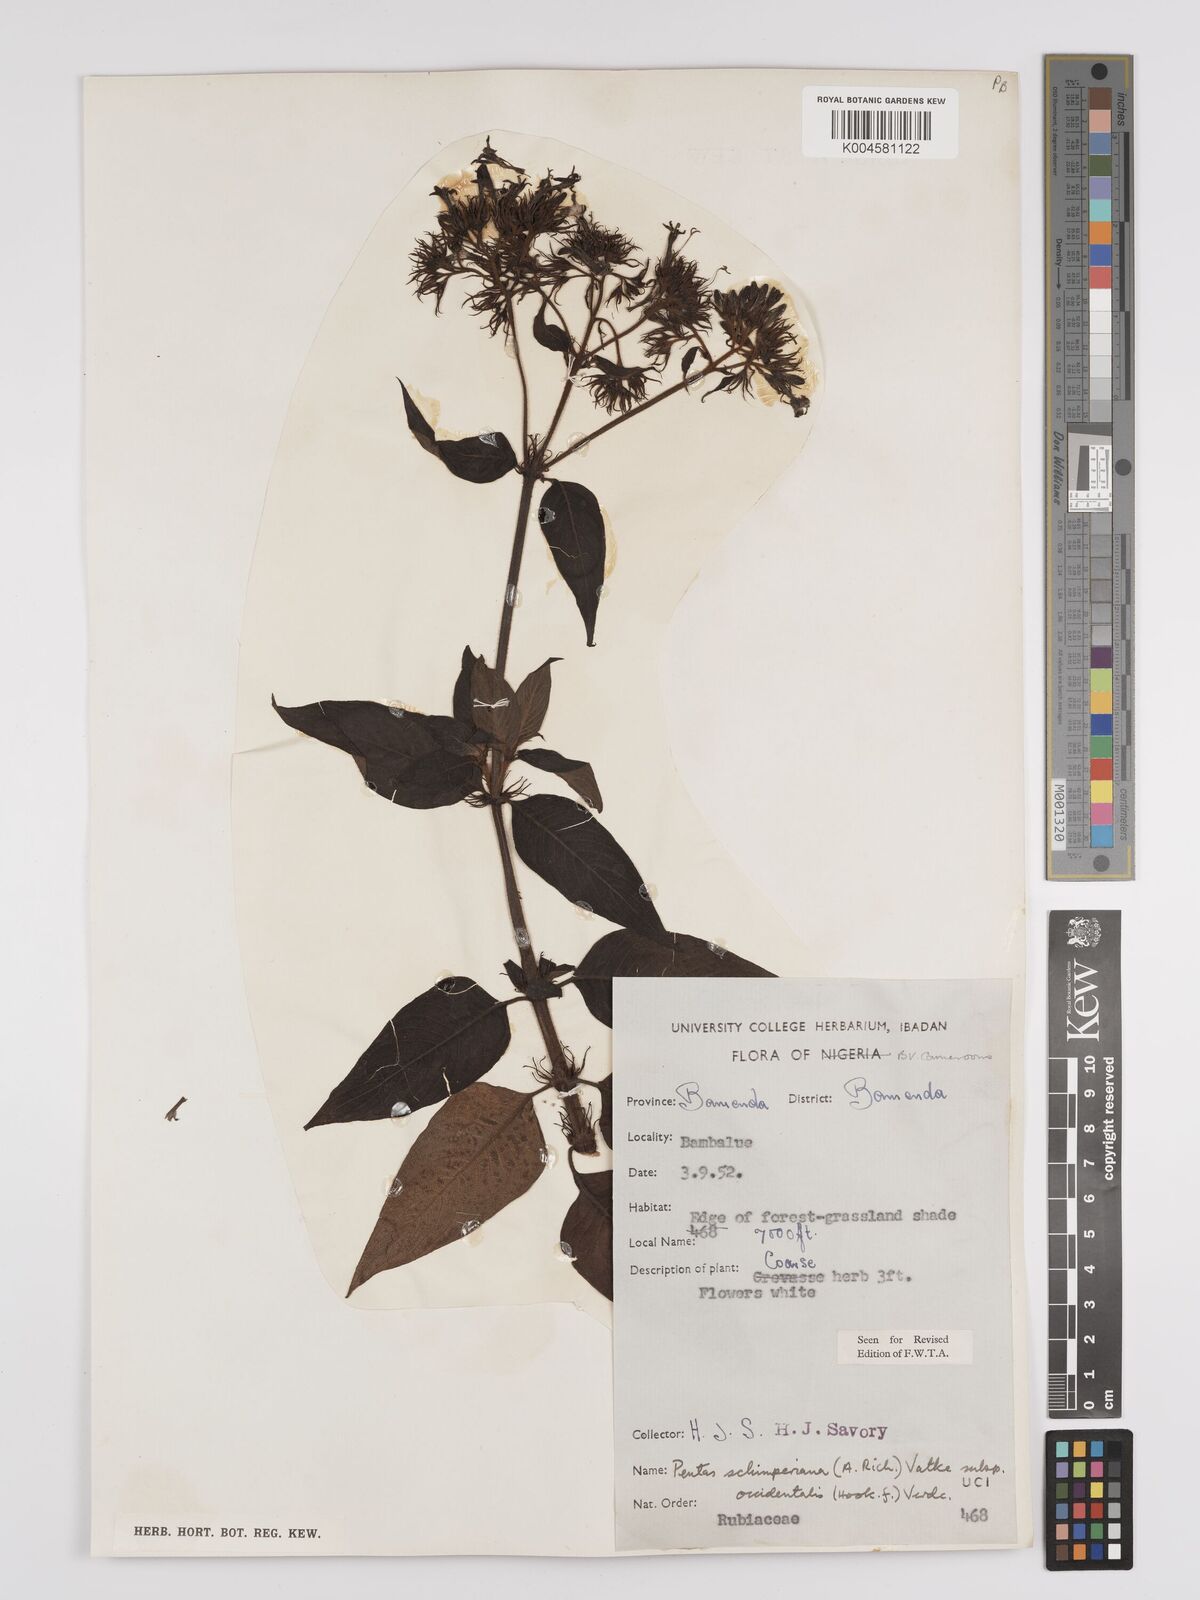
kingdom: Plantae
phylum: Tracheophyta
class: Magnoliopsida
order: Gentianales
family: Rubiaceae
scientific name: Rubiaceae
